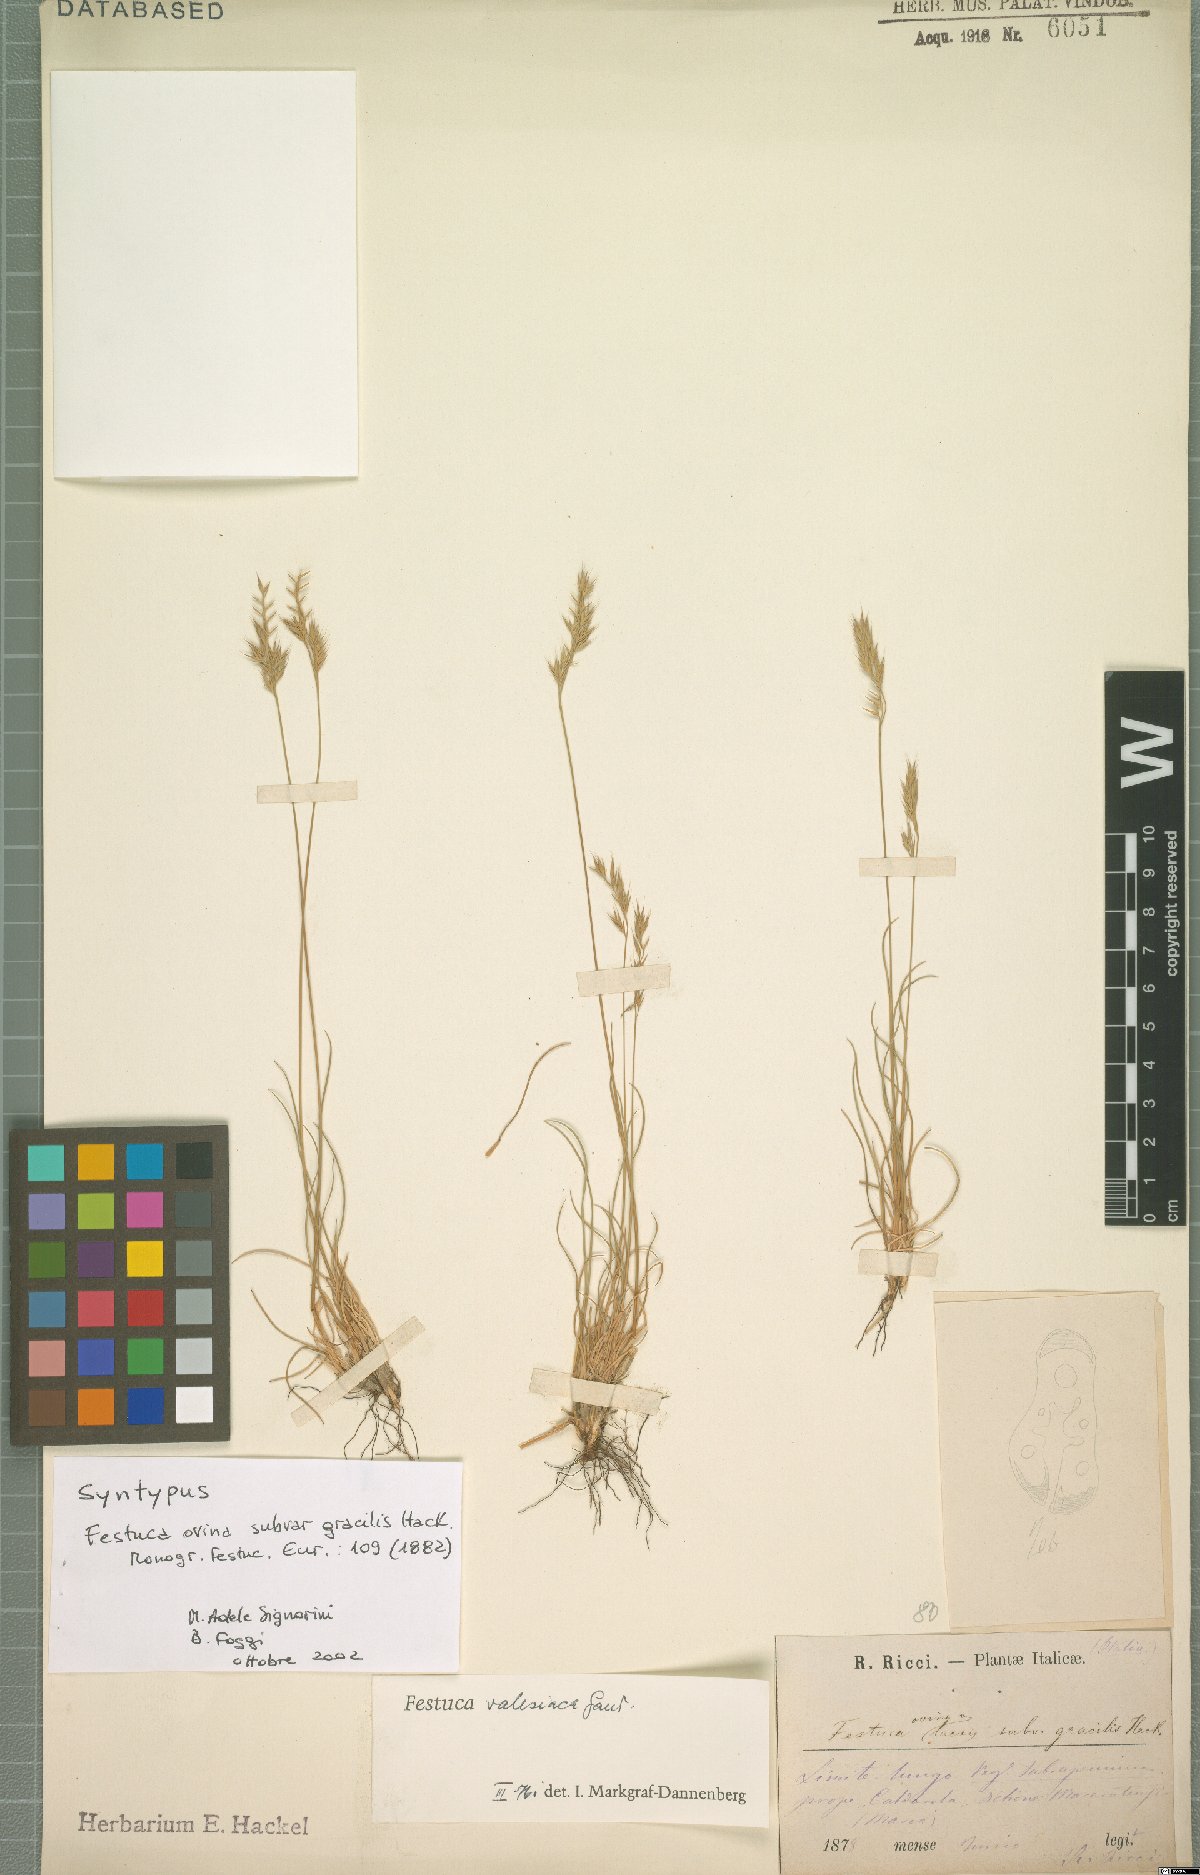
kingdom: Plantae
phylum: Tracheophyta
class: Liliopsida
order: Poales
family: Poaceae
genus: Festuca
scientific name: Festuca valesiaca
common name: Volga fescue
